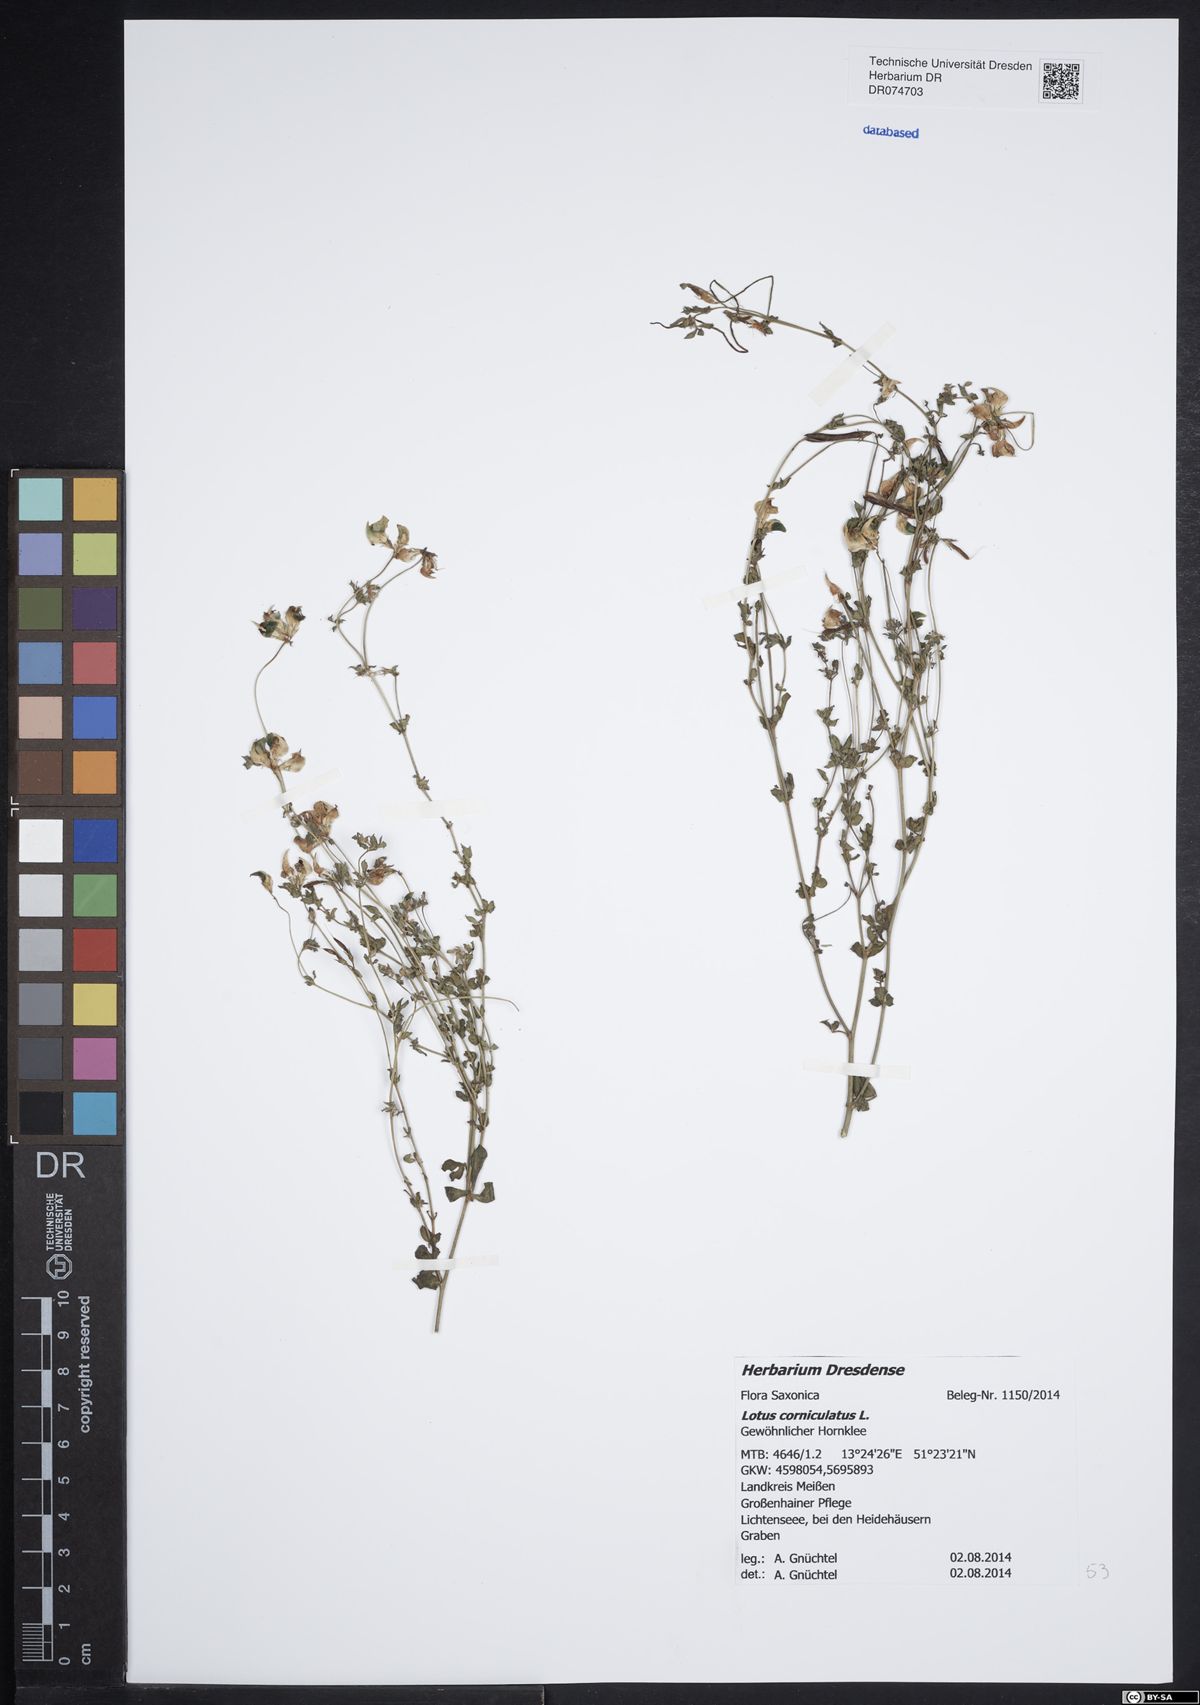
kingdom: Plantae
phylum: Tracheophyta
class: Magnoliopsida
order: Fabales
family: Fabaceae
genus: Lotus
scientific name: Lotus corniculatus
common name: Common bird's-foot-trefoil
